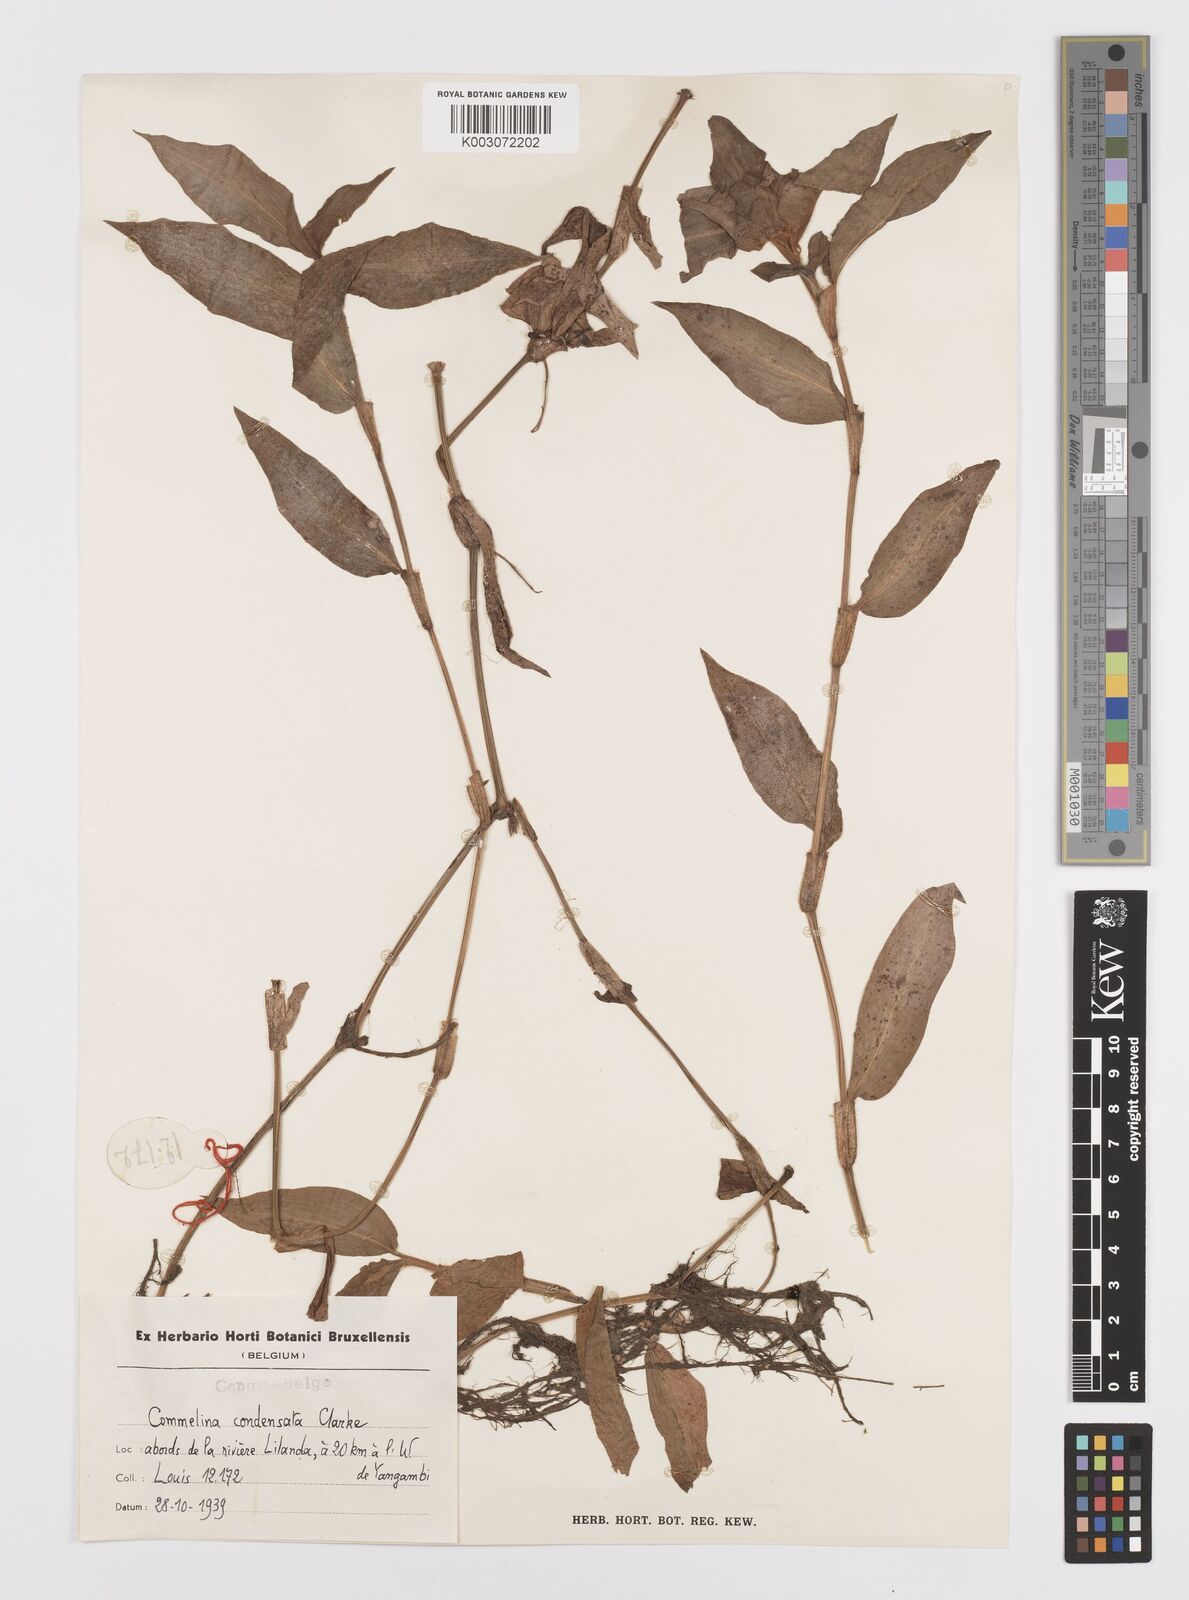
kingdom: Plantae
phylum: Tracheophyta
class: Liliopsida
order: Commelinales
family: Commelinaceae
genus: Commelina
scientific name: Commelina congesta
